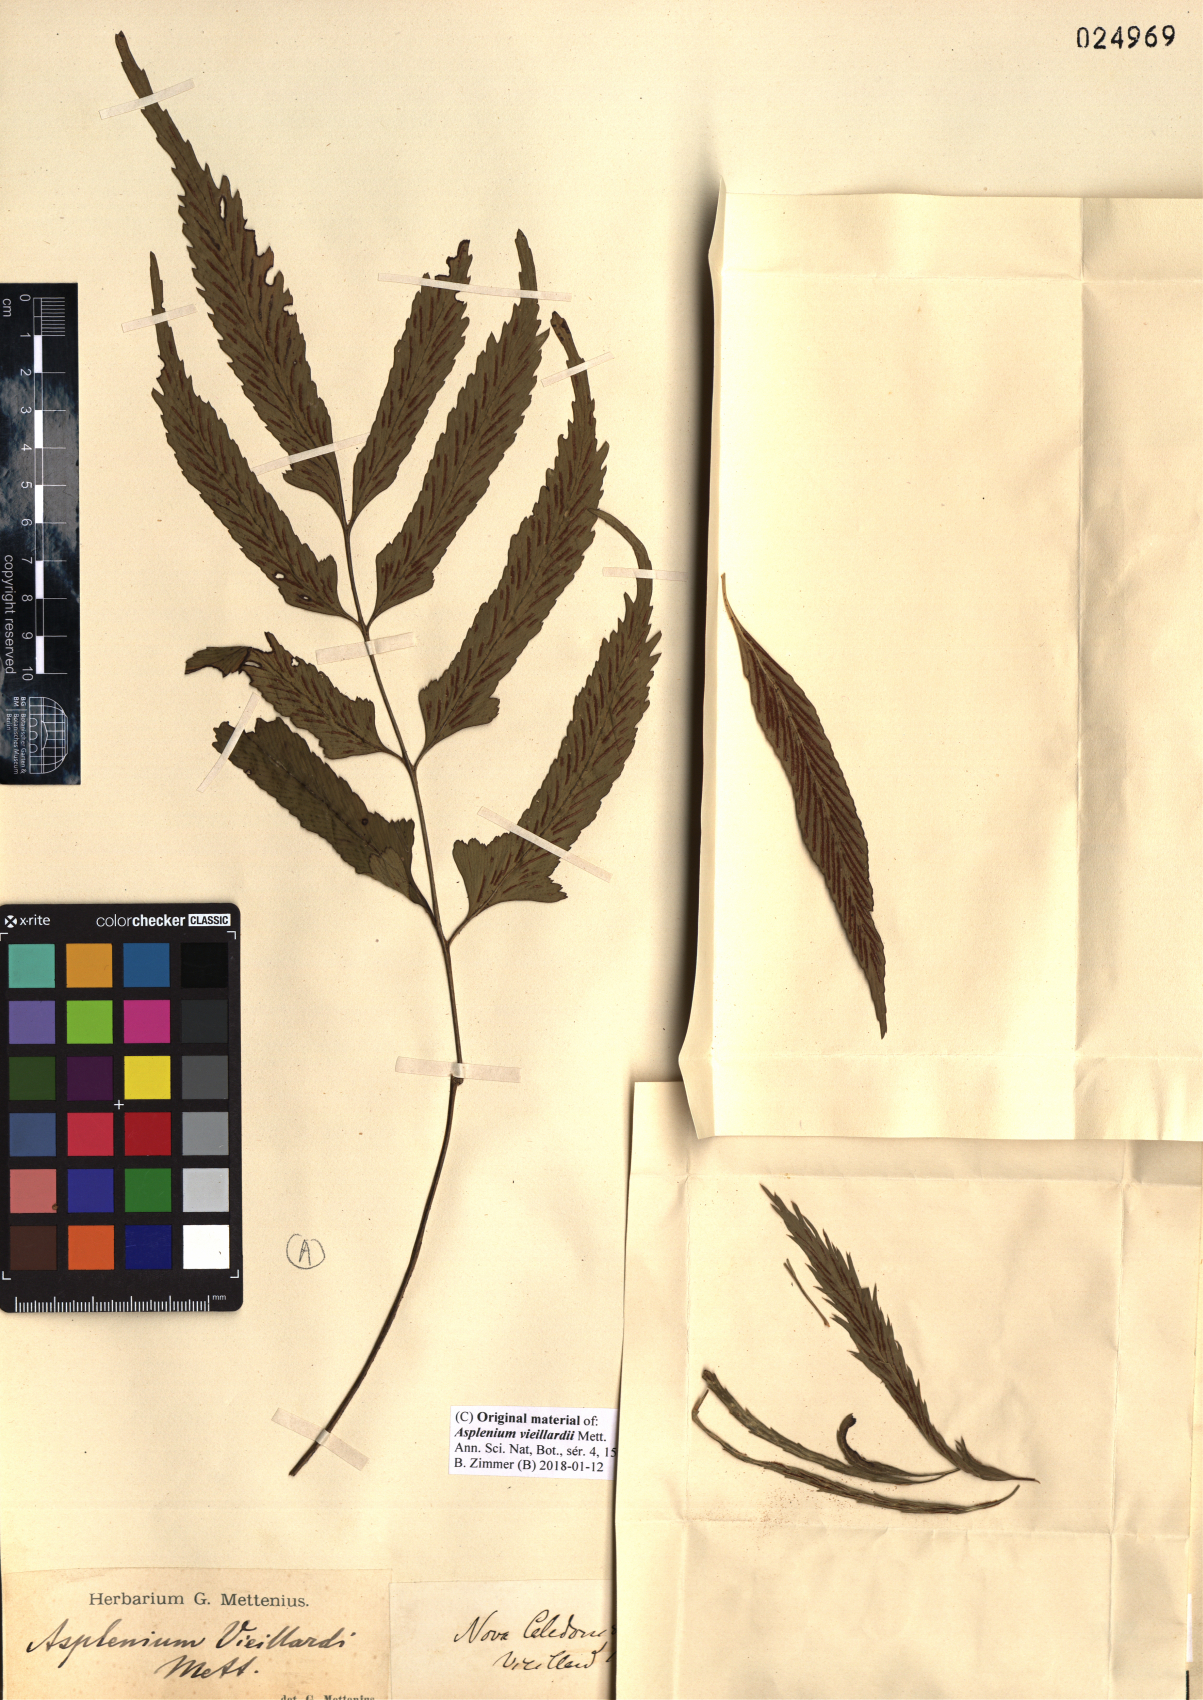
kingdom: Plantae
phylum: Tracheophyta
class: Polypodiopsida
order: Polypodiales
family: Aspleniaceae
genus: Asplenium
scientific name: Asplenium vieillardii
